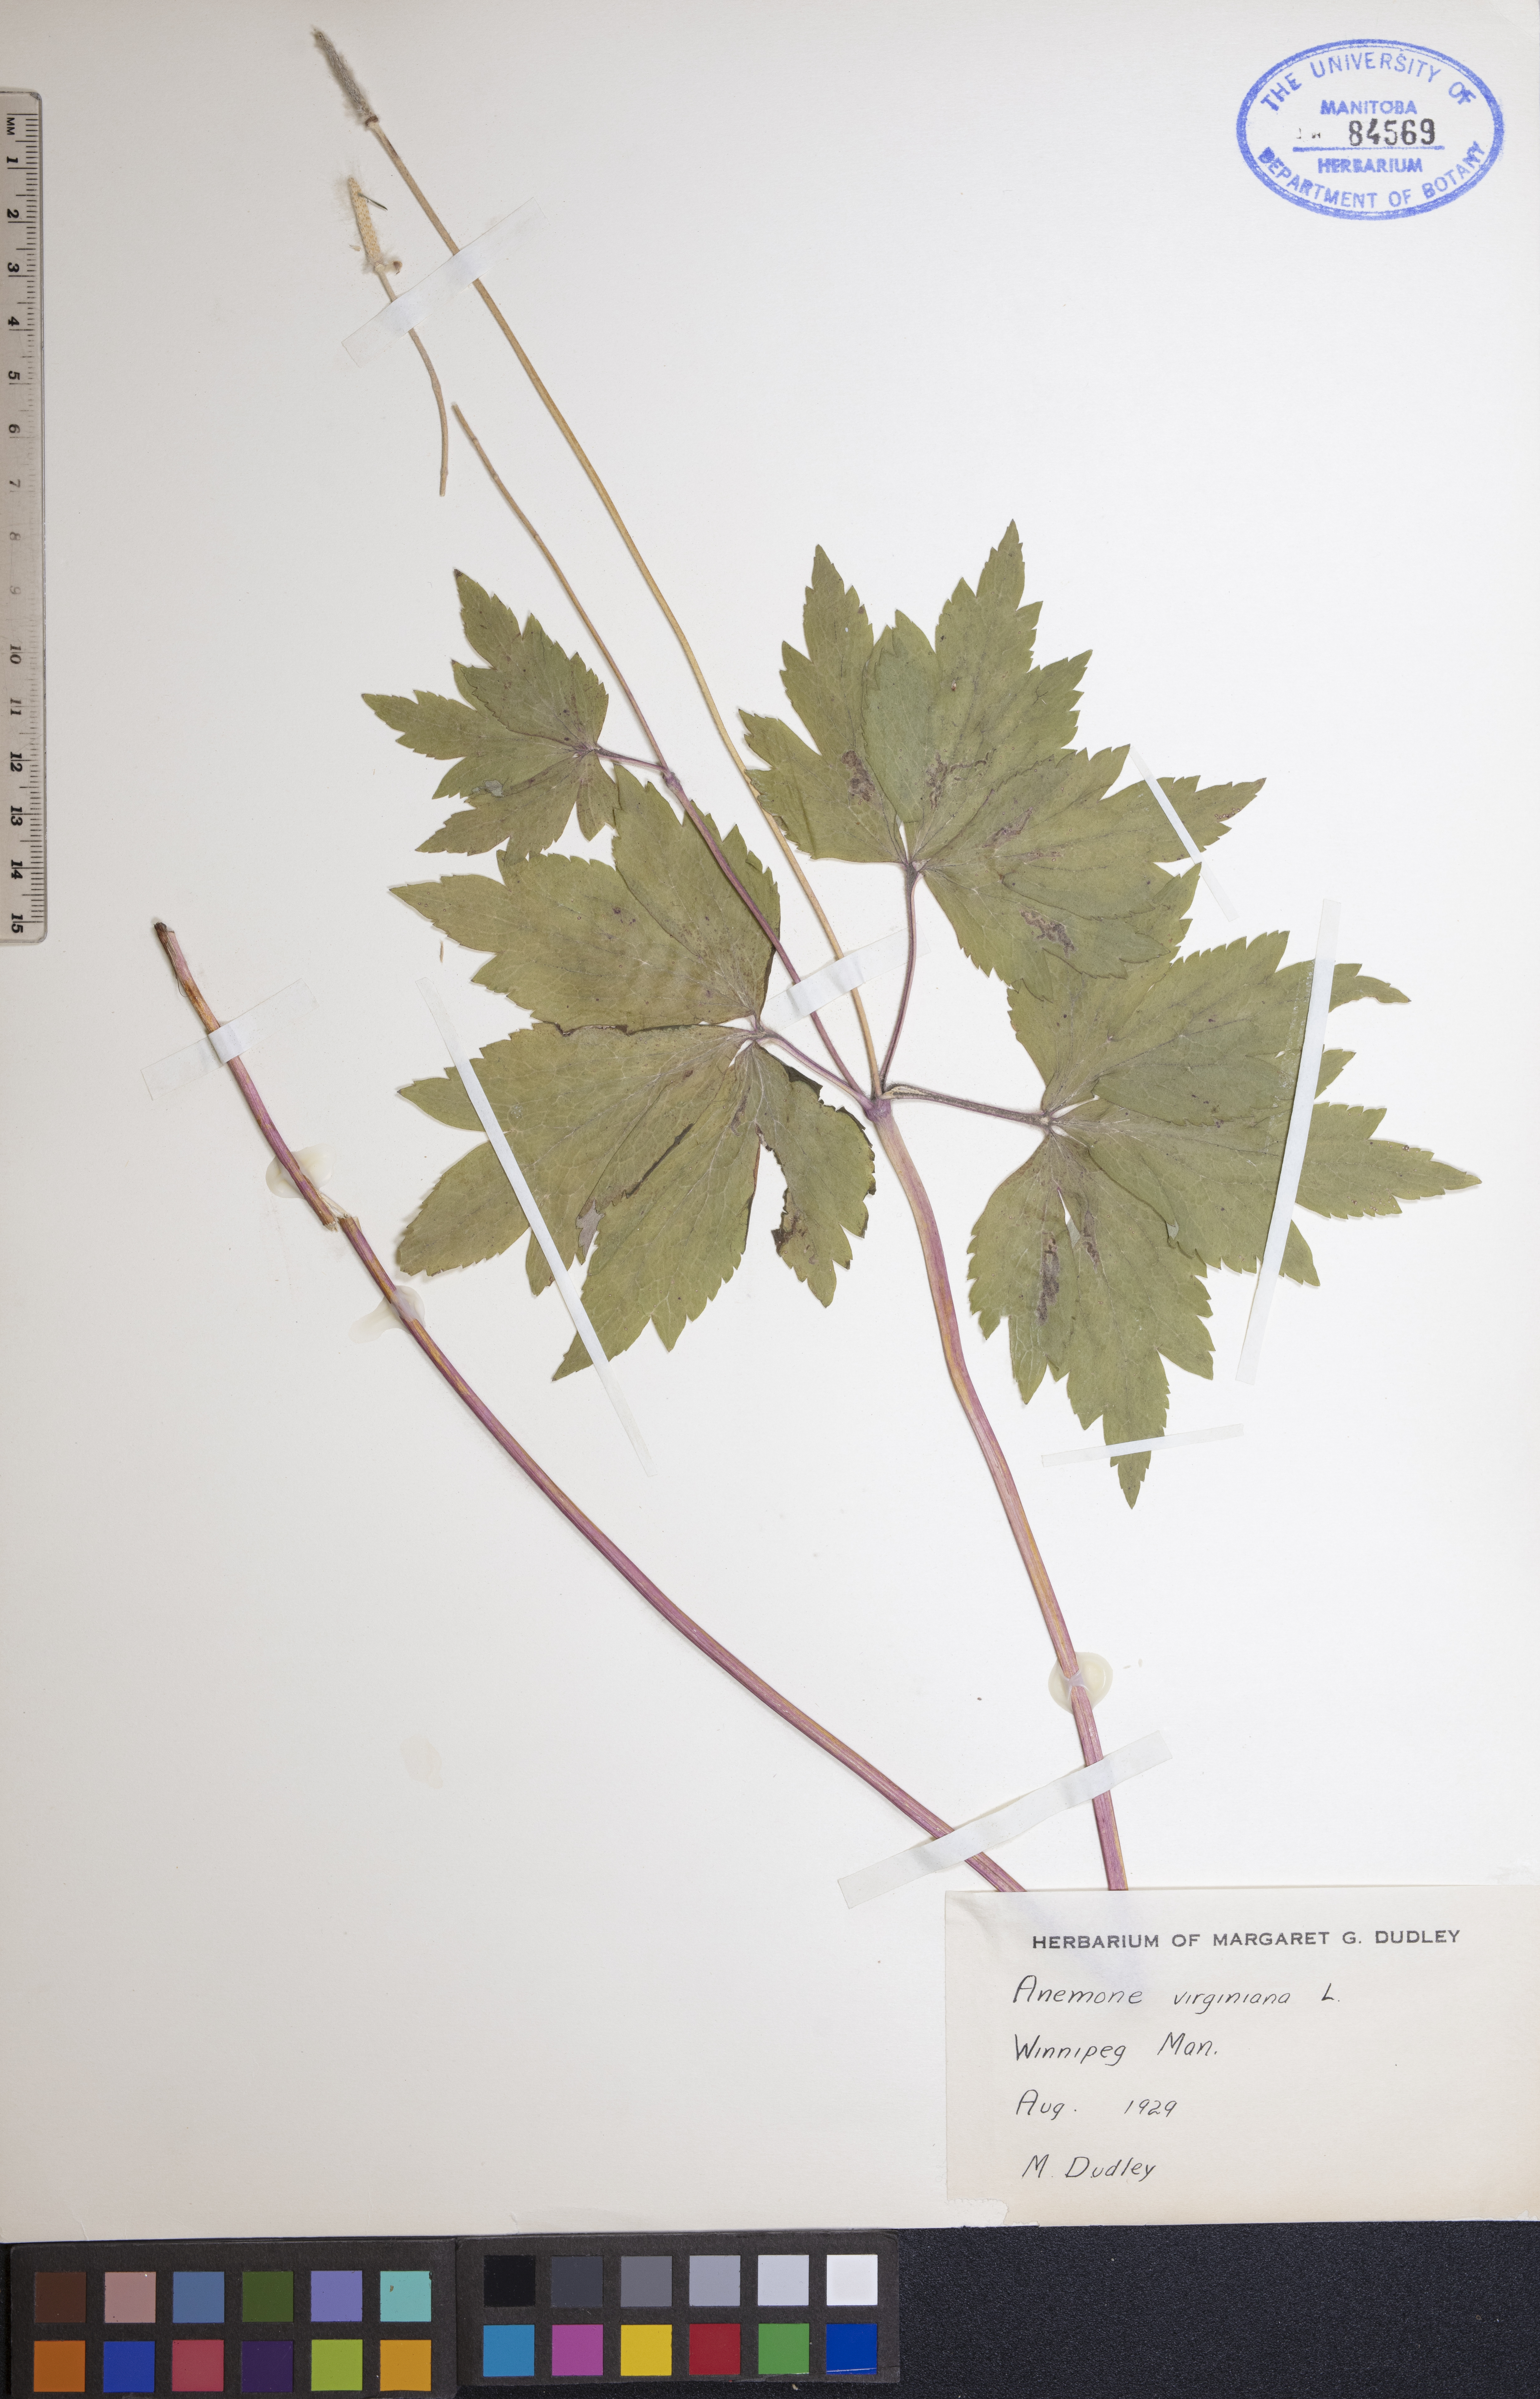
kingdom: Plantae
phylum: Tracheophyta
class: Magnoliopsida
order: Ranunculales
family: Ranunculaceae
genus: Anemone
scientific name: Anemone virginiana
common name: Tall anemone
